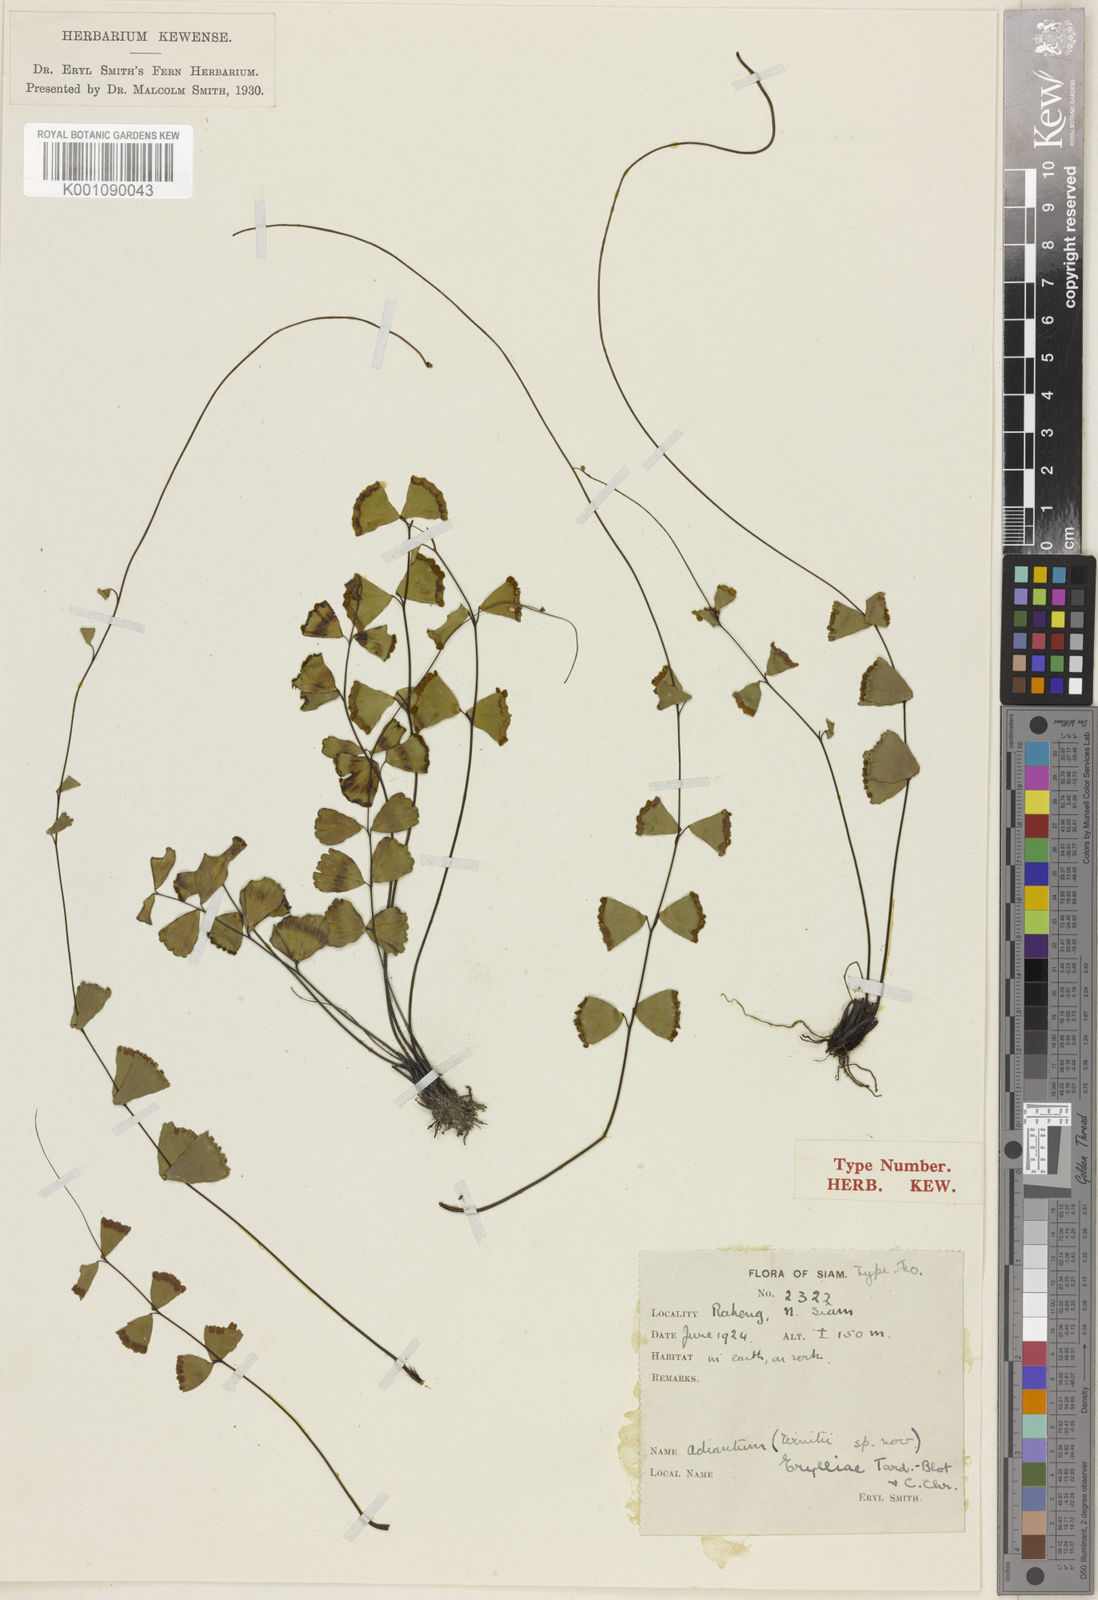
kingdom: Plantae
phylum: Tracheophyta
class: Polypodiopsida
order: Polypodiales
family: Pteridaceae
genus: Adiantum
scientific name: Adiantum erylliae
